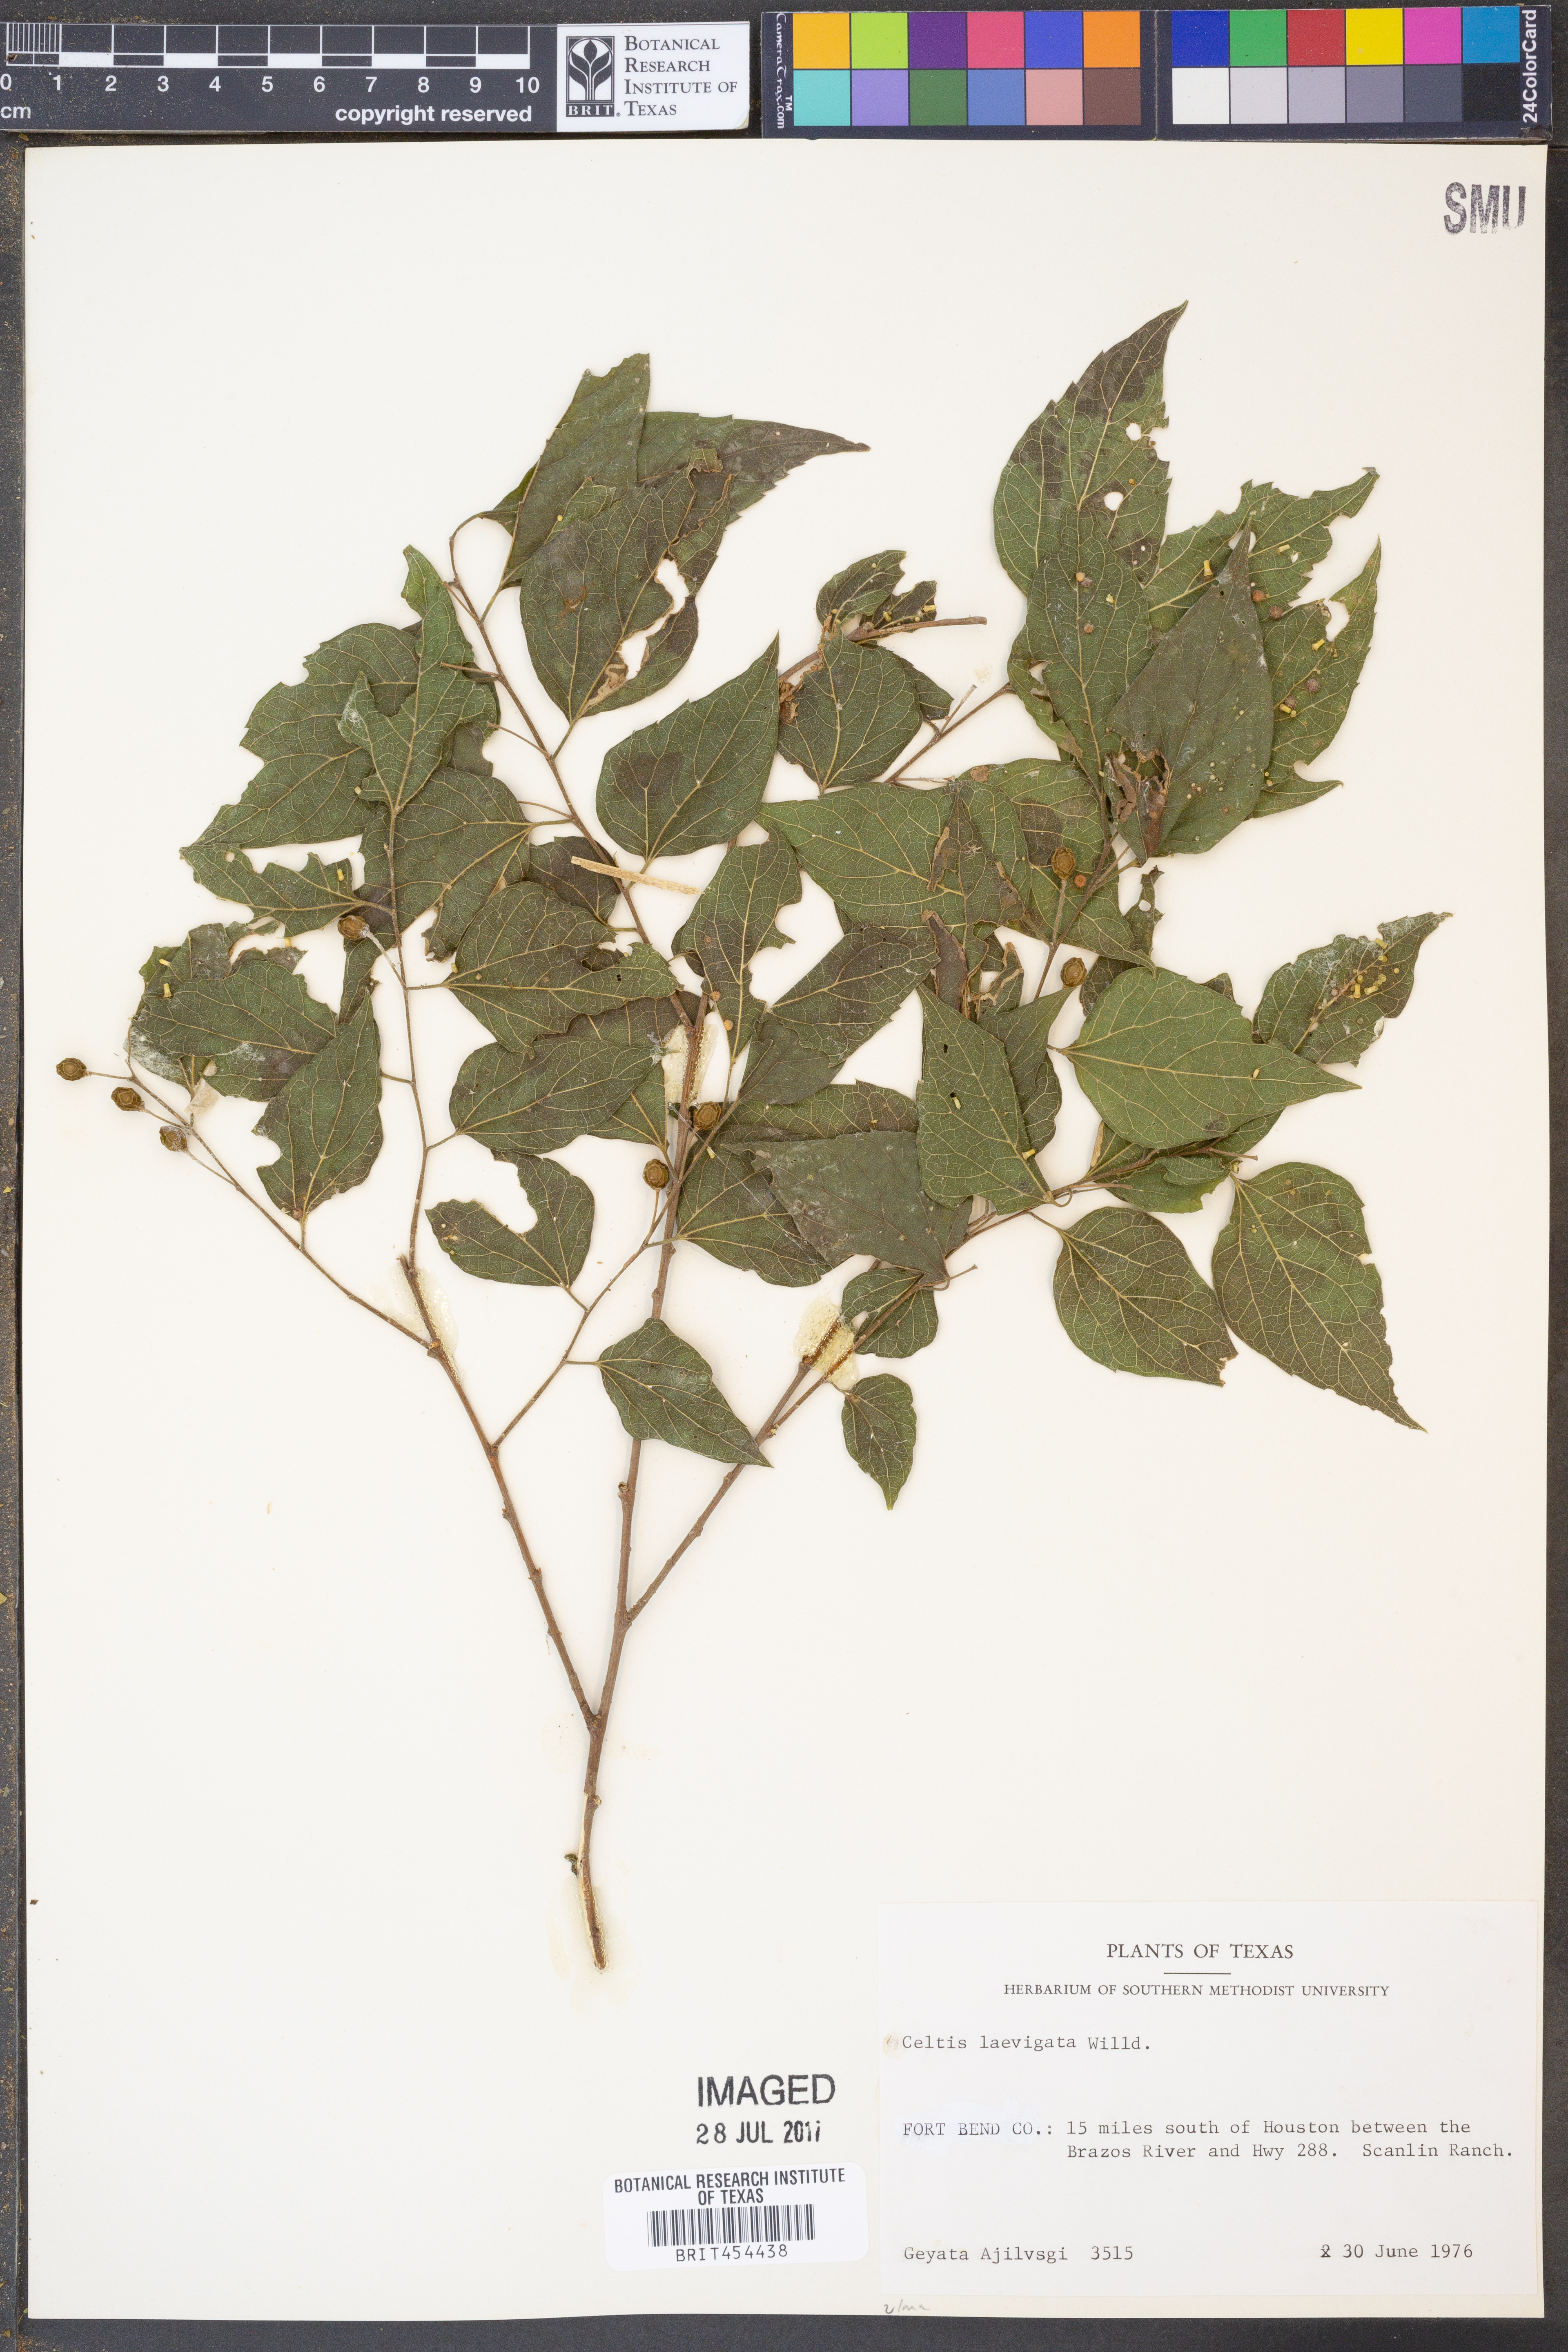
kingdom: Plantae
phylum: Tracheophyta
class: Magnoliopsida
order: Rosales
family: Cannabaceae
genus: Celtis
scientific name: Celtis laevigata
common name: Sugarberry
